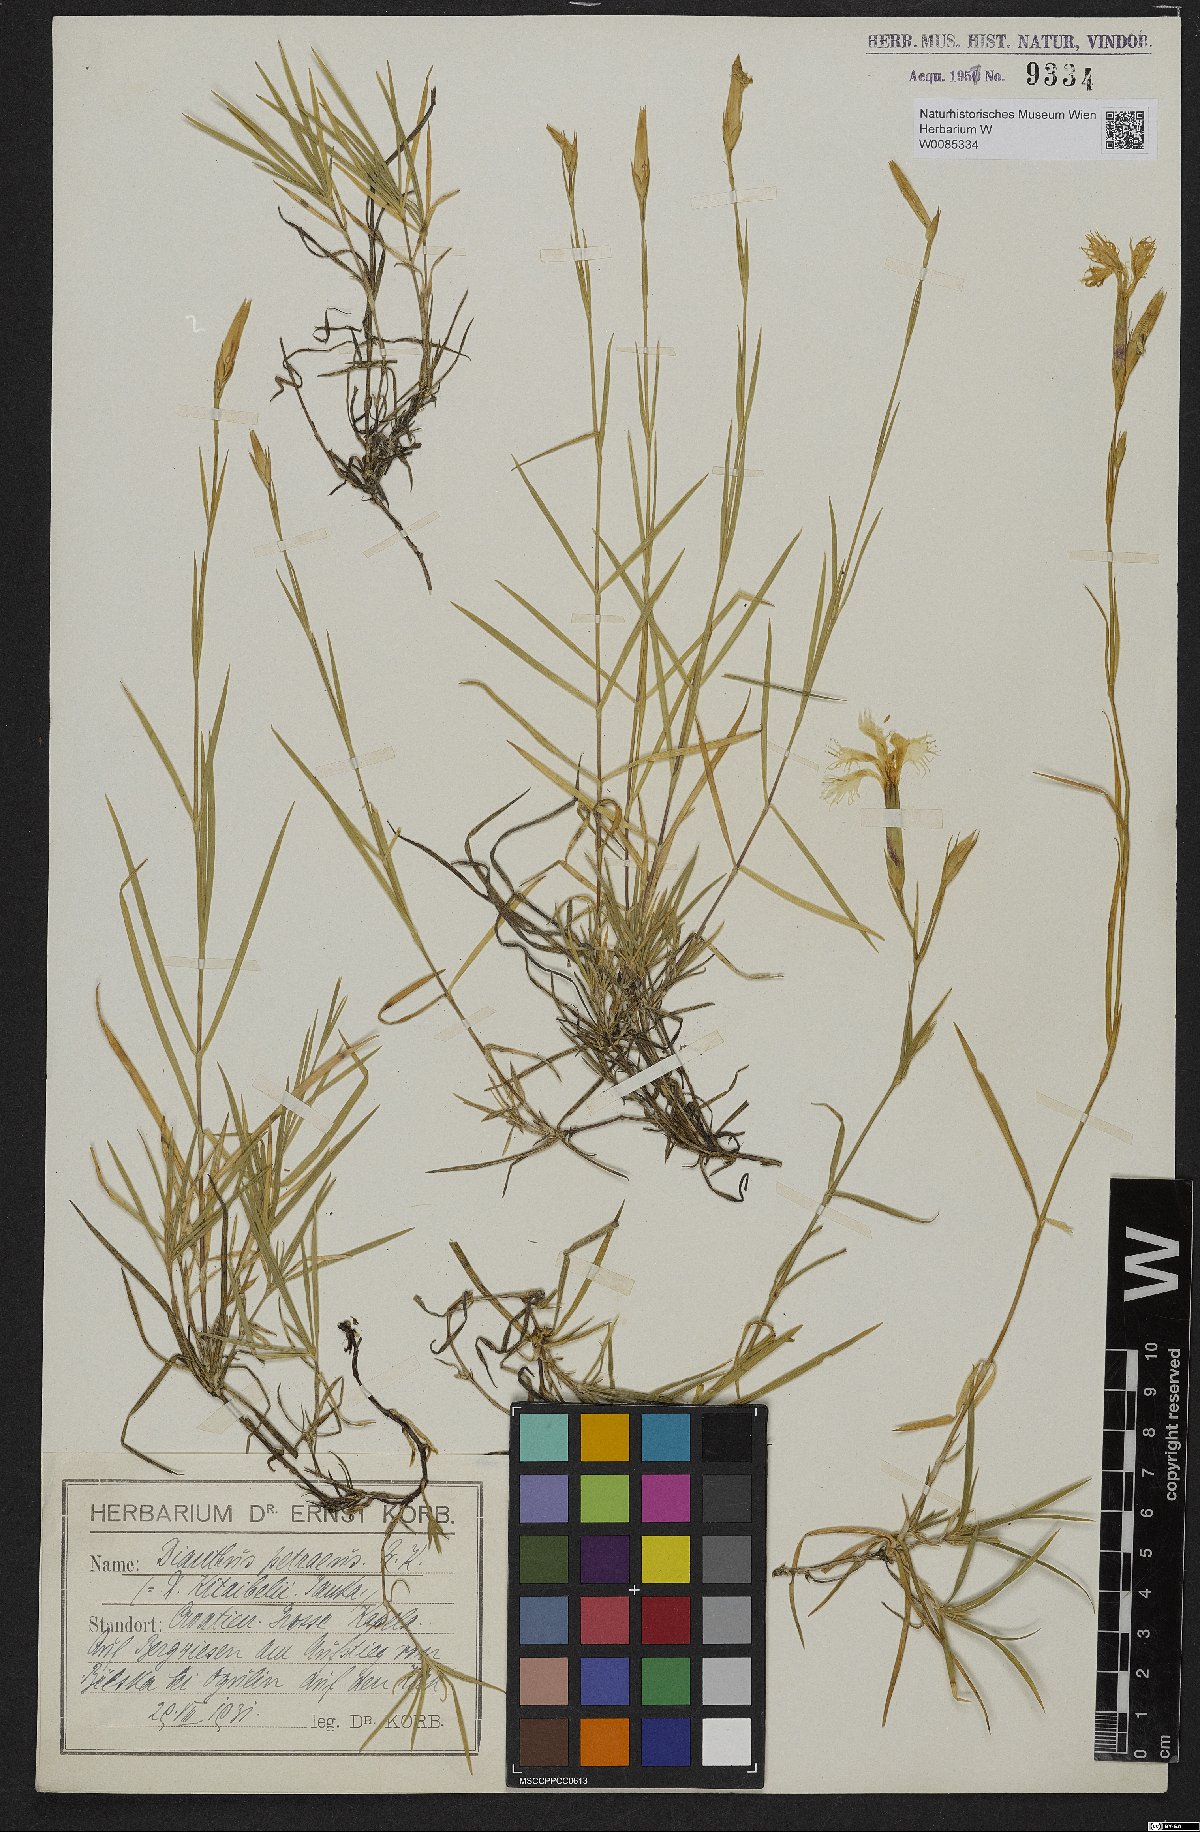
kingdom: Plantae
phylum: Tracheophyta
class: Magnoliopsida
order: Caryophyllales
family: Caryophyllaceae
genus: Dianthus
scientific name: Dianthus petraeus
